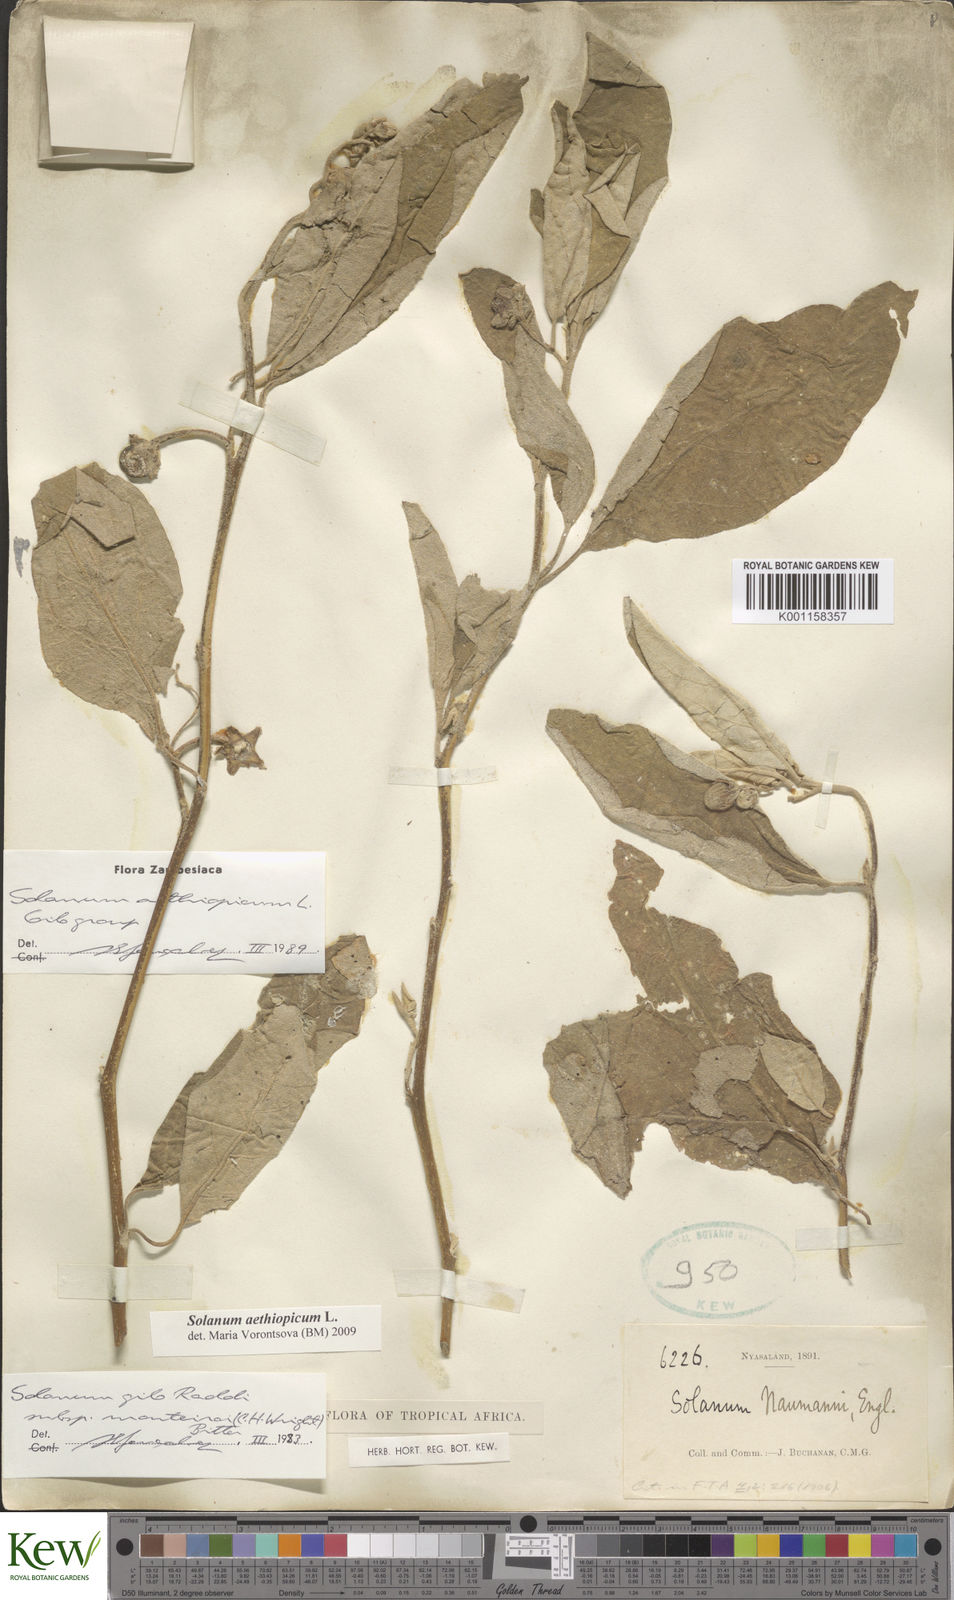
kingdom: Plantae
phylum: Tracheophyta
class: Magnoliopsida
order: Solanales
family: Solanaceae
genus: Solanum
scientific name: Solanum aethiopicum
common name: Gilo
